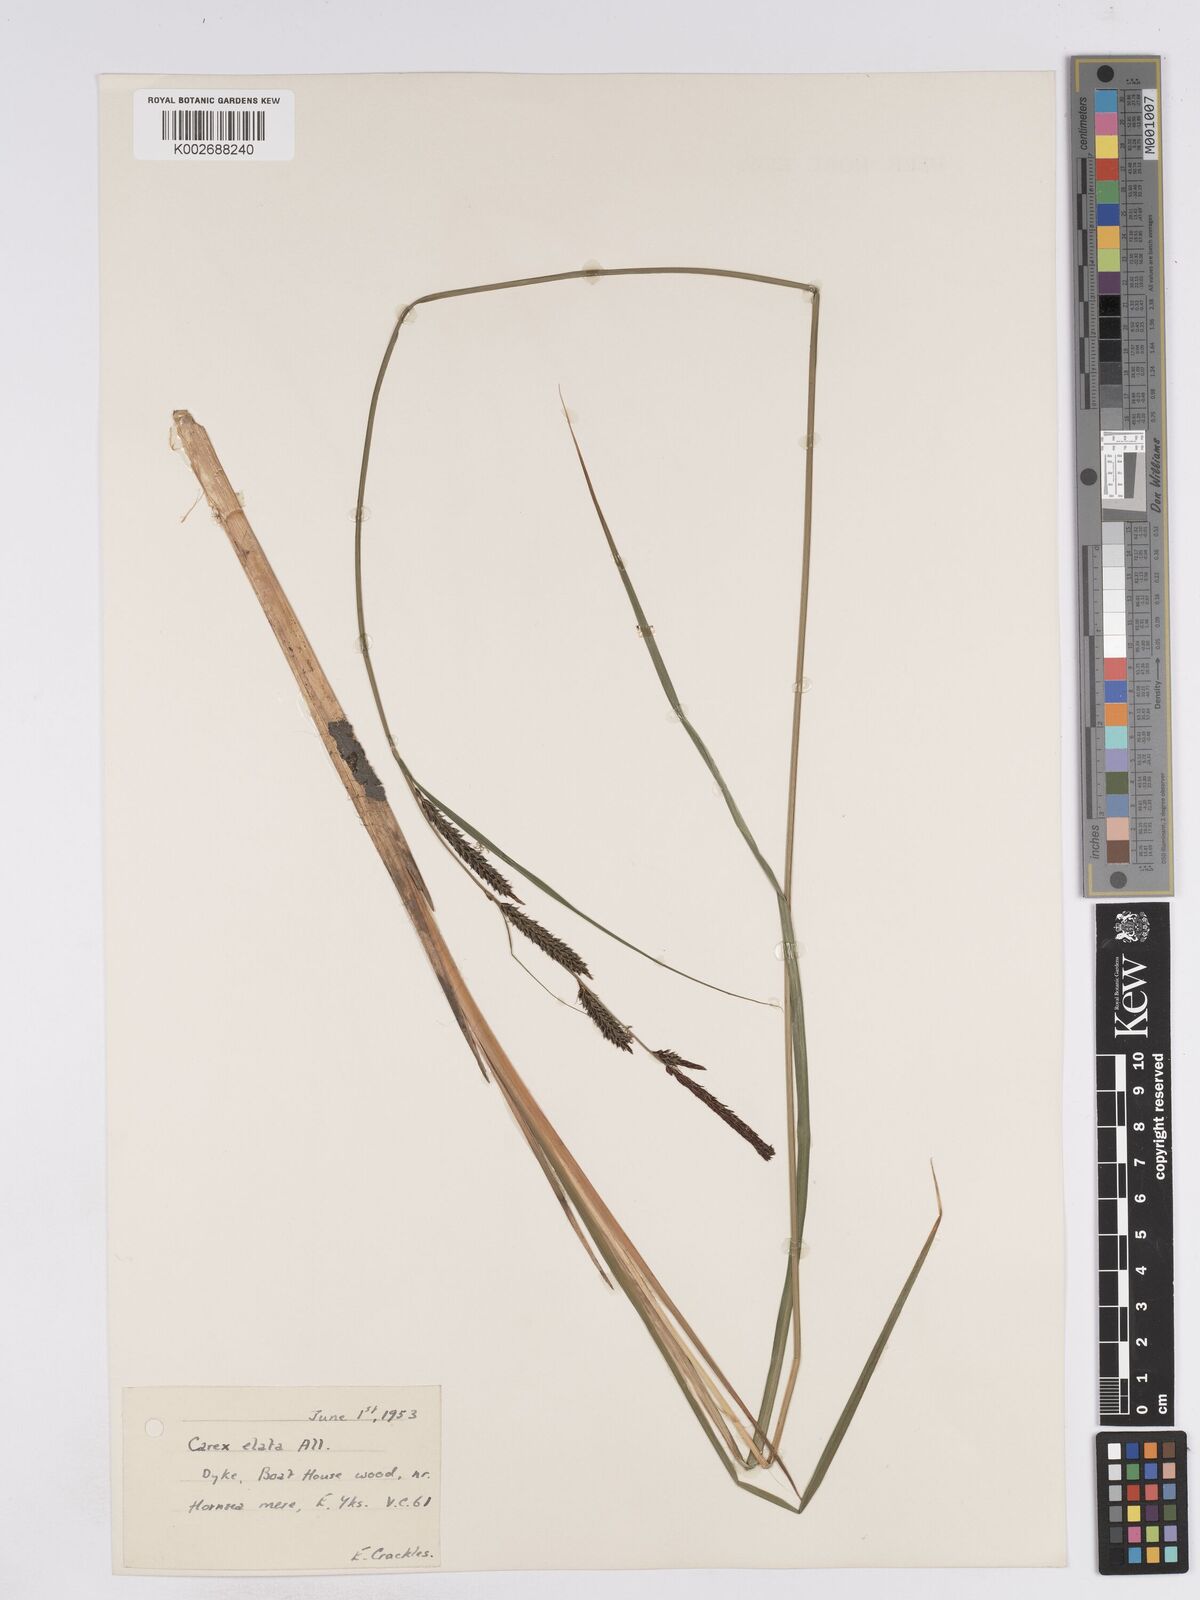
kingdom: Plantae
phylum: Tracheophyta
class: Liliopsida
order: Poales
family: Cyperaceae
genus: Carex
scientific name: Carex elata
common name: Tufted sedge
